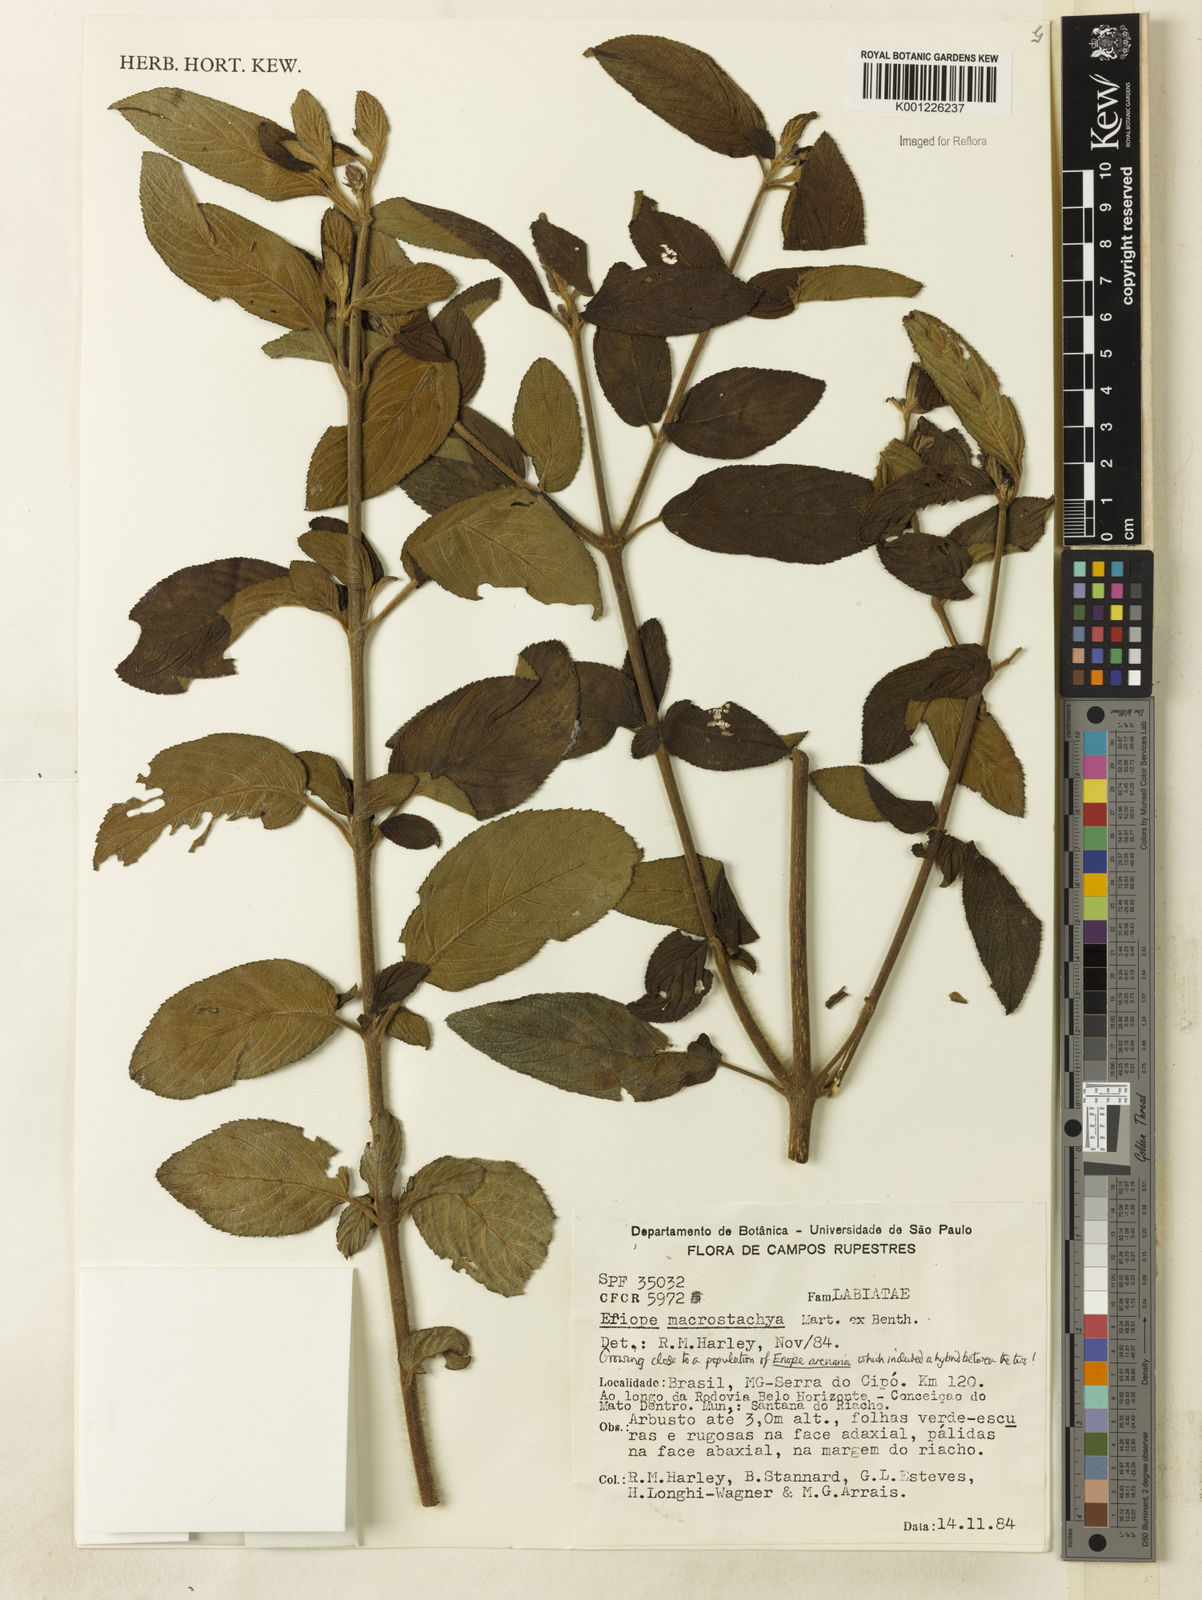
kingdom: Plantae
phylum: Tracheophyta
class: Magnoliopsida
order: Lamiales
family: Lamiaceae
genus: Eriope
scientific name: Eriope macrostachya
